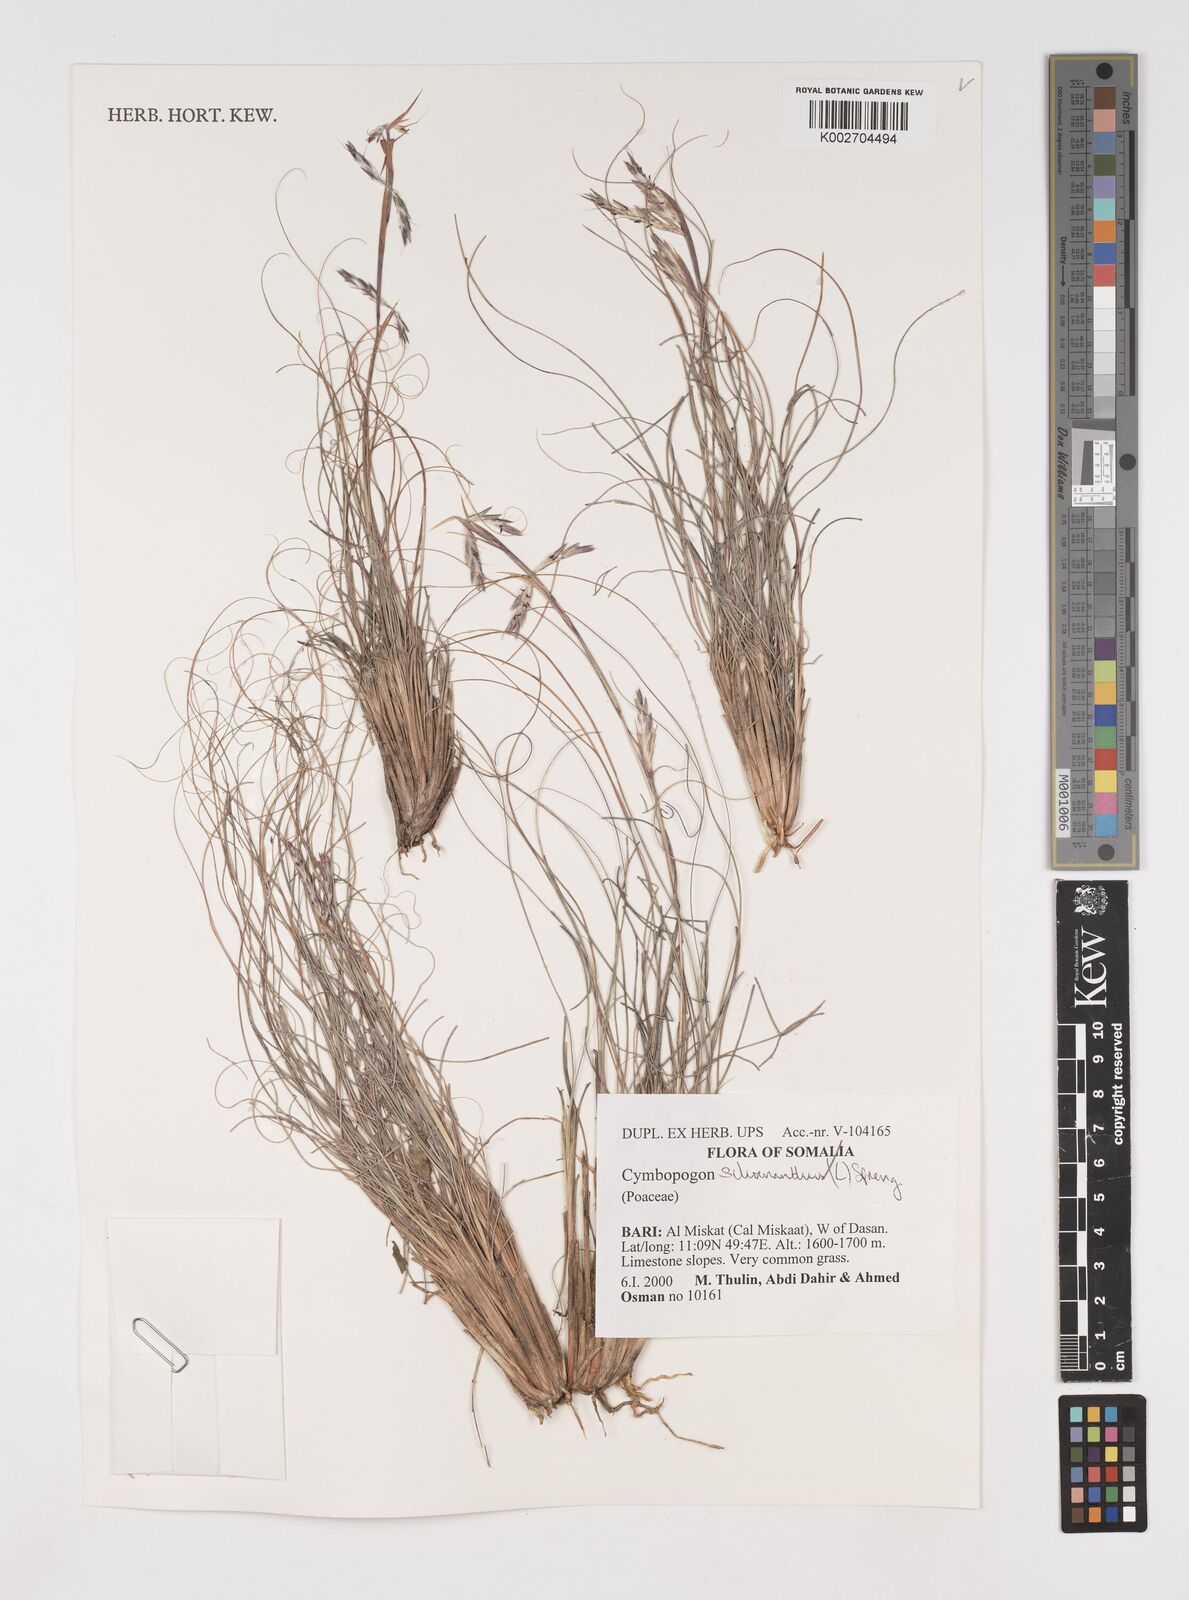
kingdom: Plantae
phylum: Tracheophyta
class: Liliopsida
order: Poales
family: Poaceae
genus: Cymbopogon
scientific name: Cymbopogon schoenanthus
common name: Geranium grass
